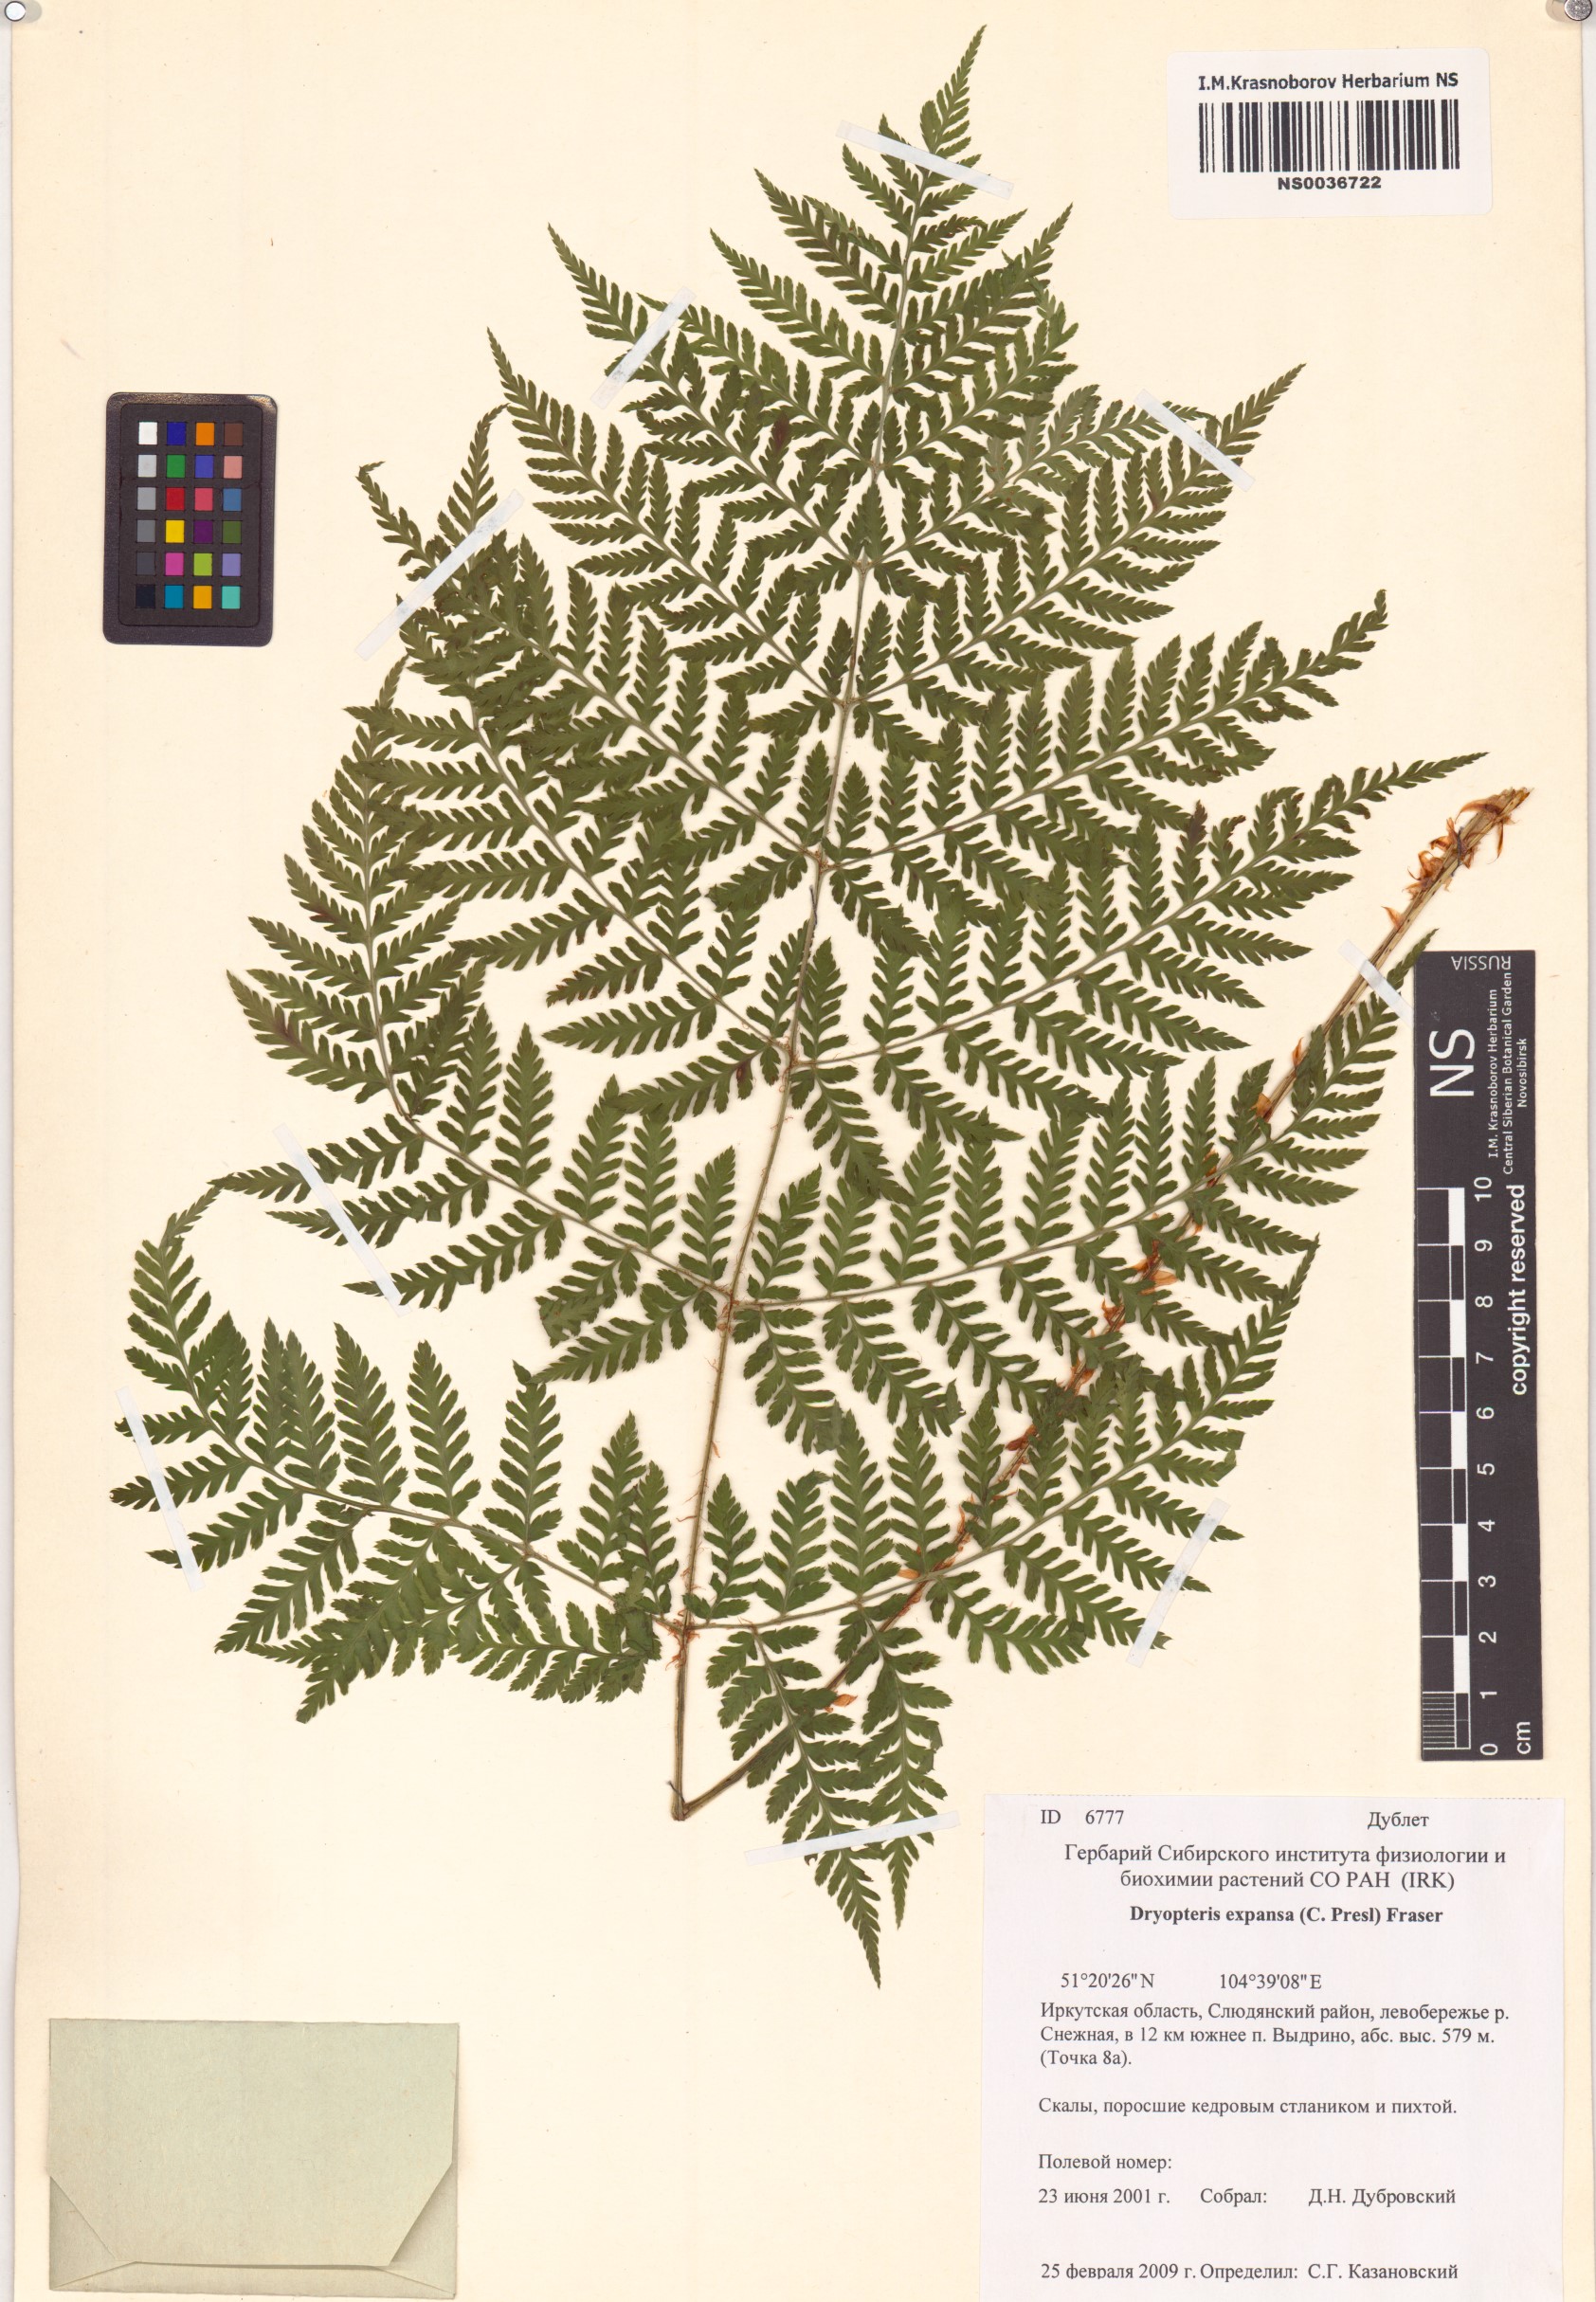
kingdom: Plantae
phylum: Tracheophyta
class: Polypodiopsida
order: Polypodiales
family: Dryopteridaceae
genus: Dryopteris
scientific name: Dryopteris expansa
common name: Northern buckler fern
